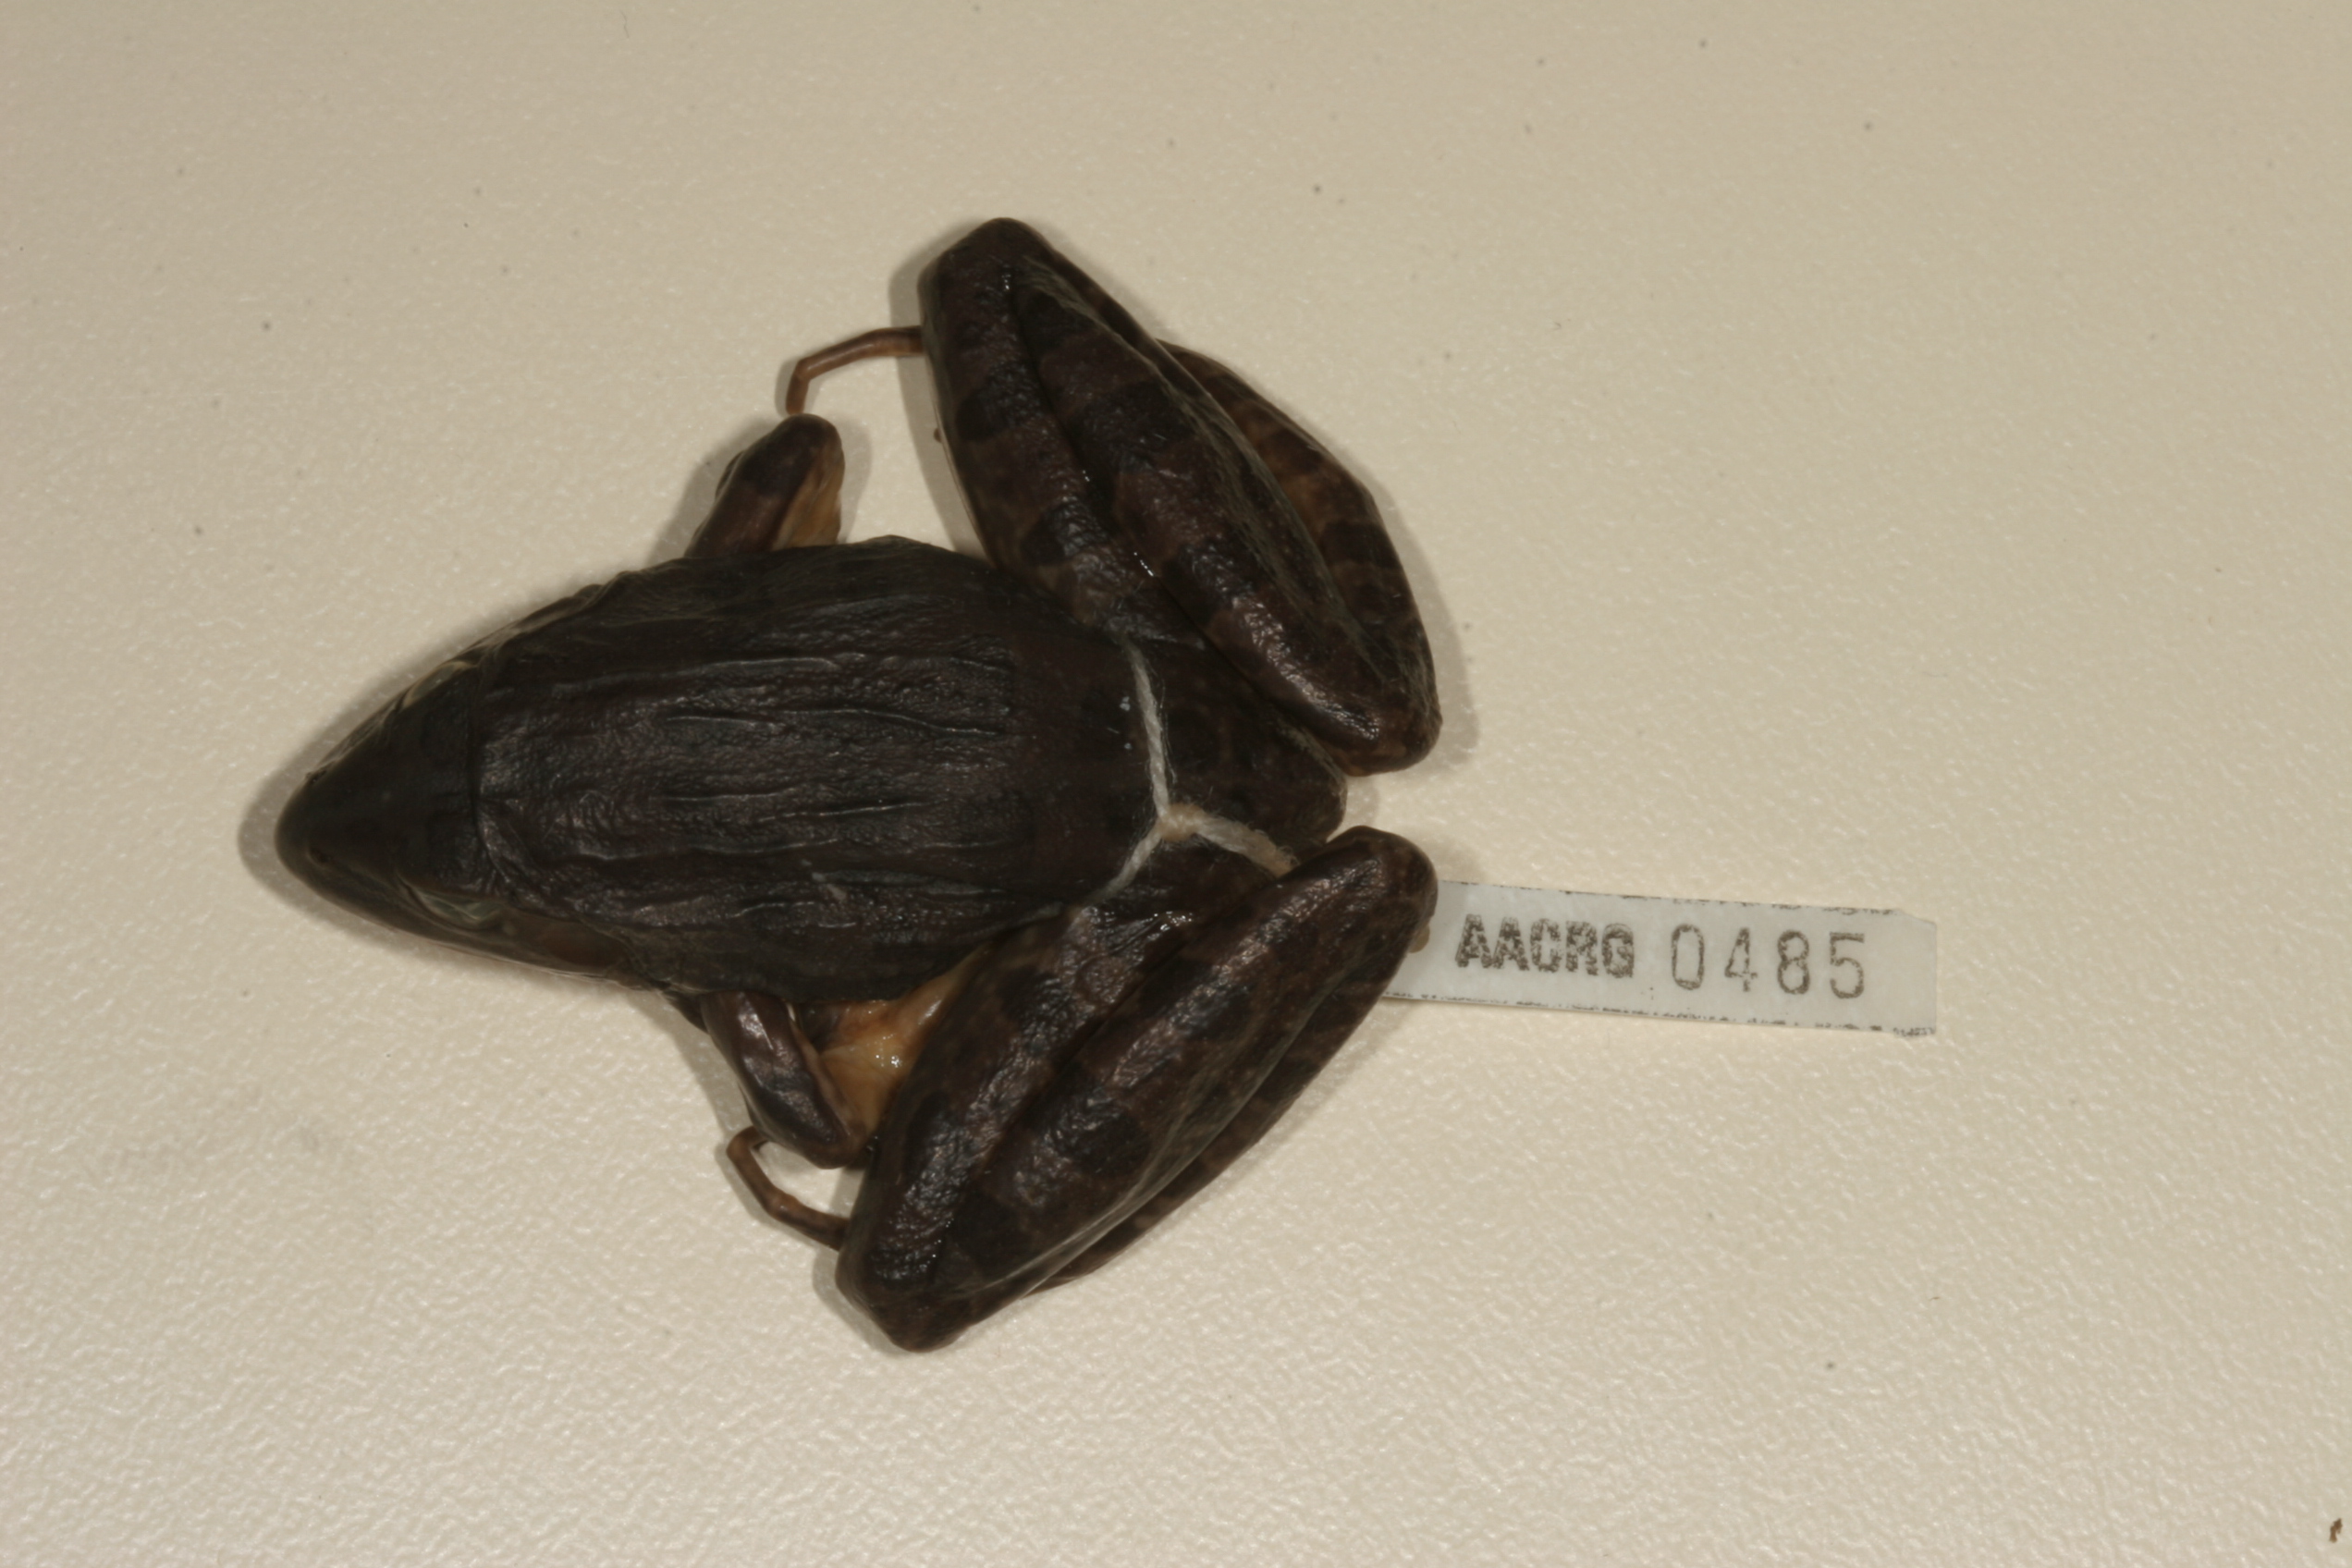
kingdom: Animalia
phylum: Chordata
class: Amphibia
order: Anura
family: Pyxicephalidae
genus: Amietia
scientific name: Amietia angolensis
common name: Dusky-throated frog
